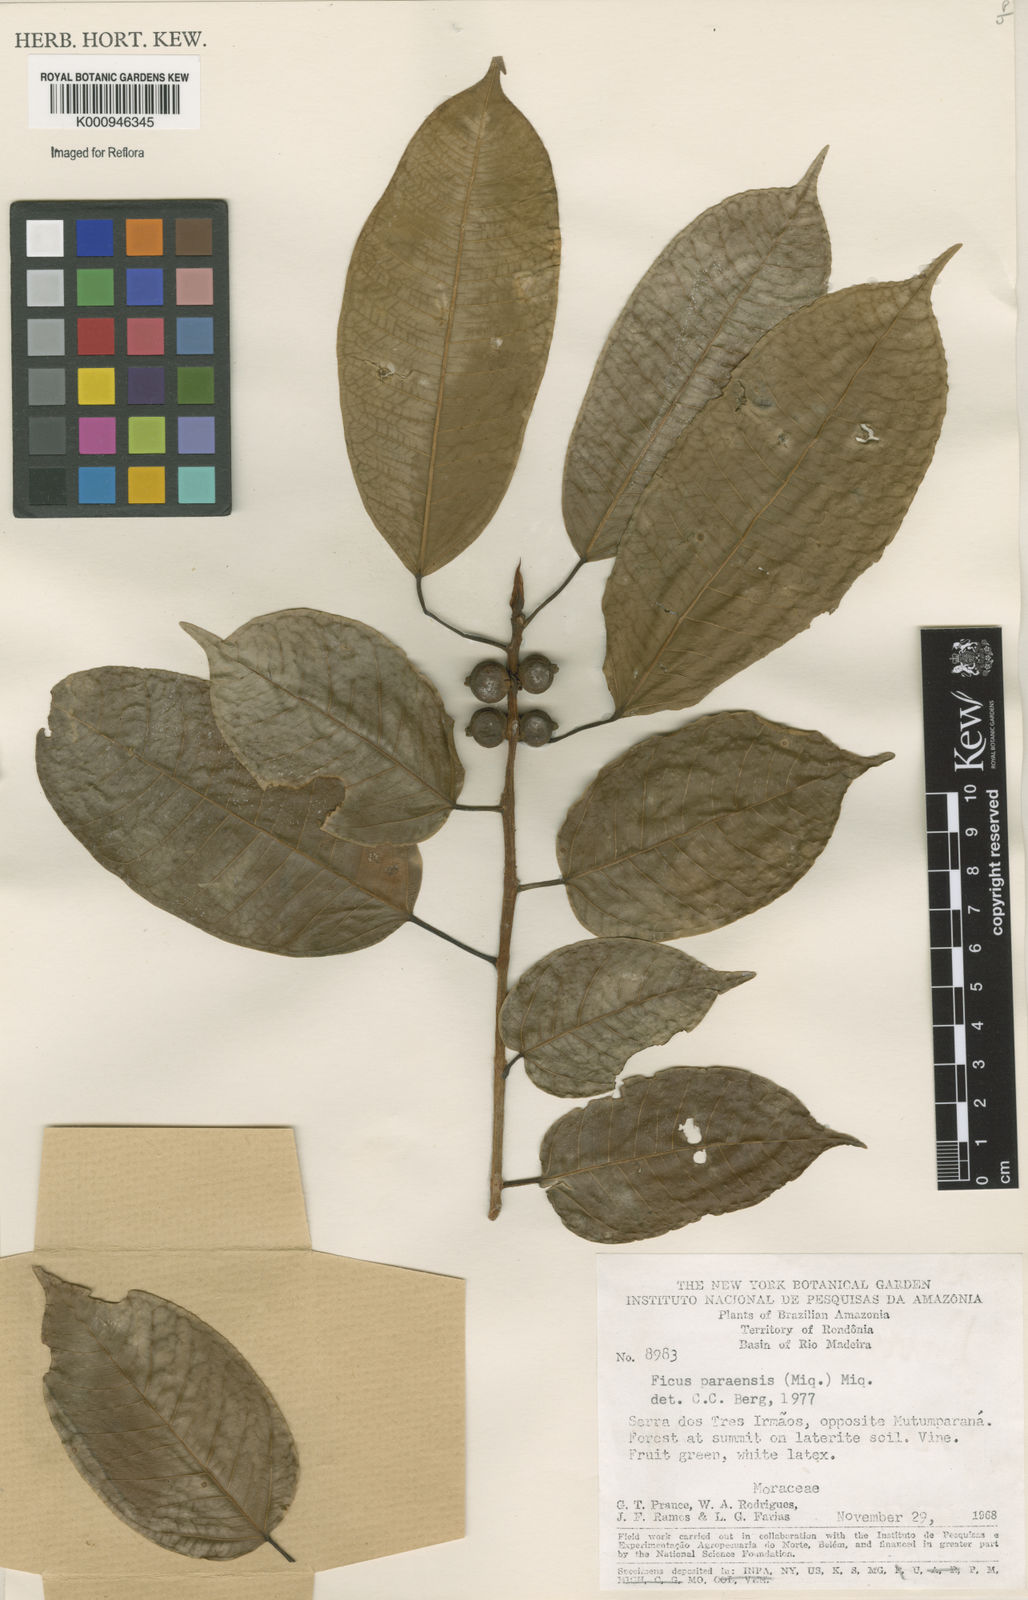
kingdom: Plantae
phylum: Tracheophyta
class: Magnoliopsida
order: Rosales
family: Moraceae
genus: Ficus
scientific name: Ficus paraensis
